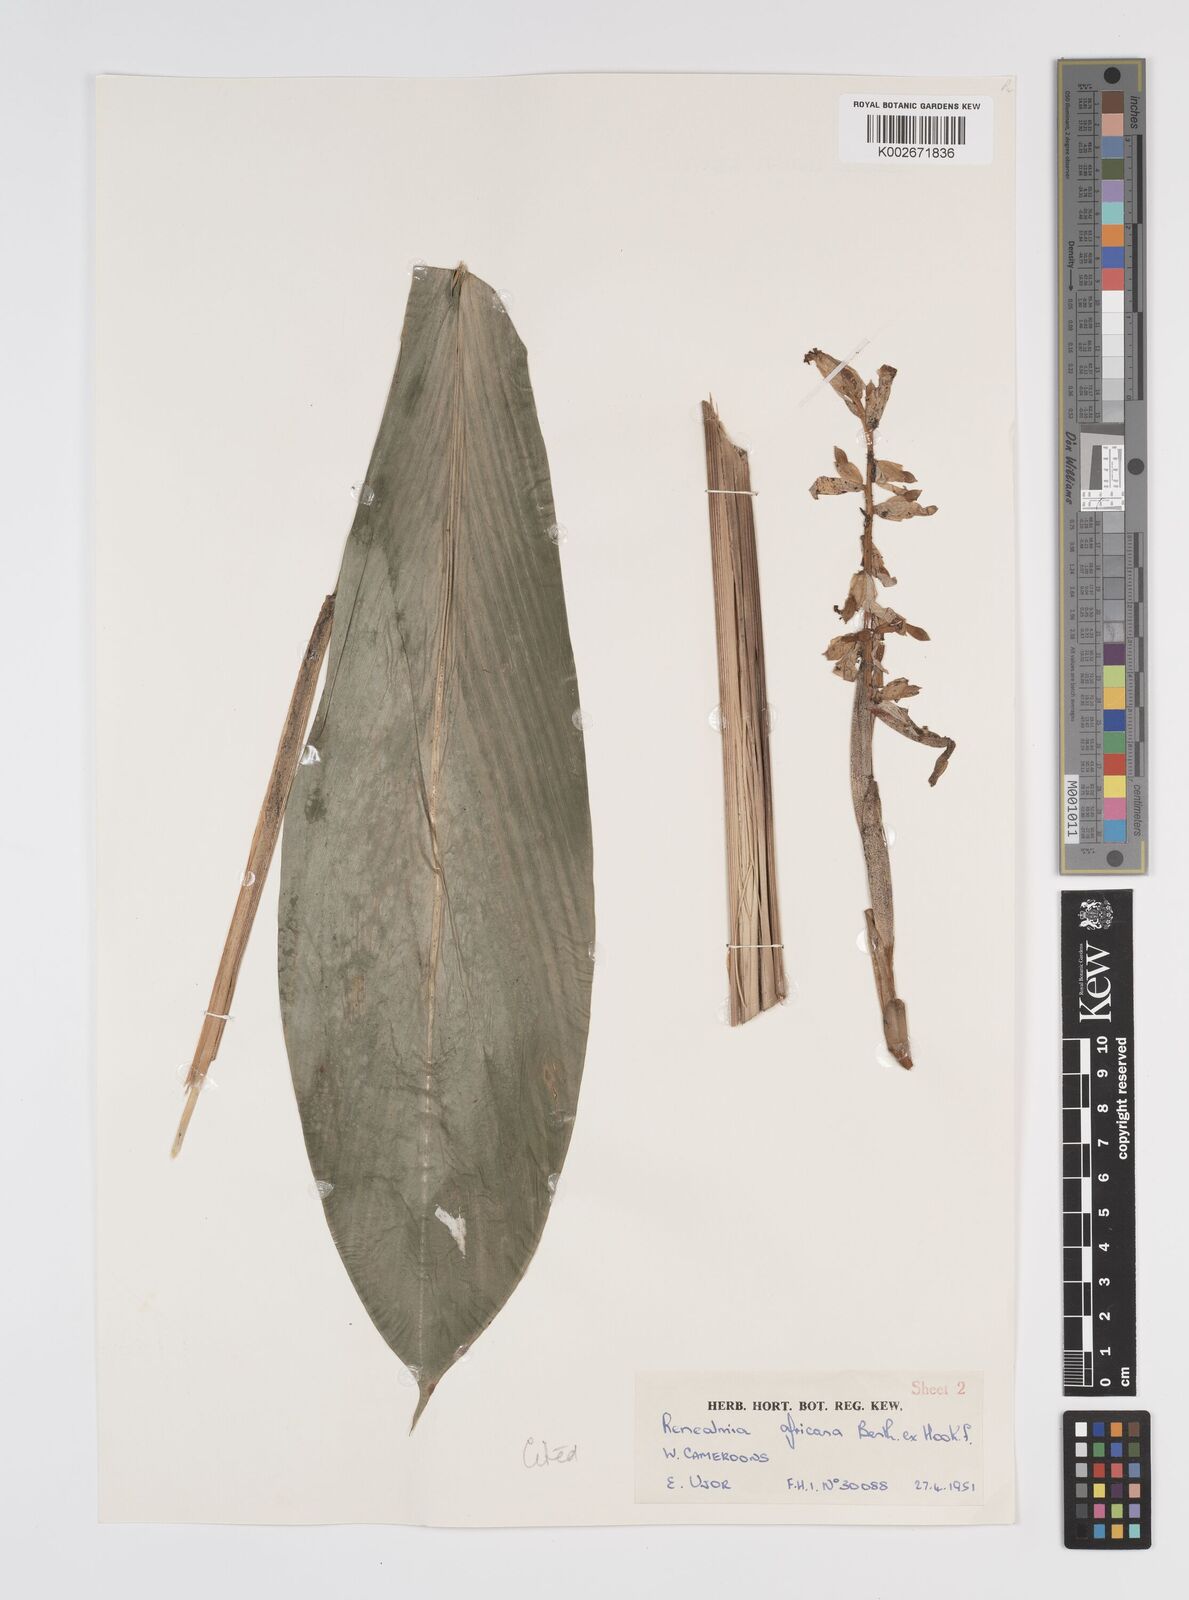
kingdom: Plantae
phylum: Tracheophyta
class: Liliopsida
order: Zingiberales
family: Zingiberaceae
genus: Renealmia
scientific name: Renealmia africana
